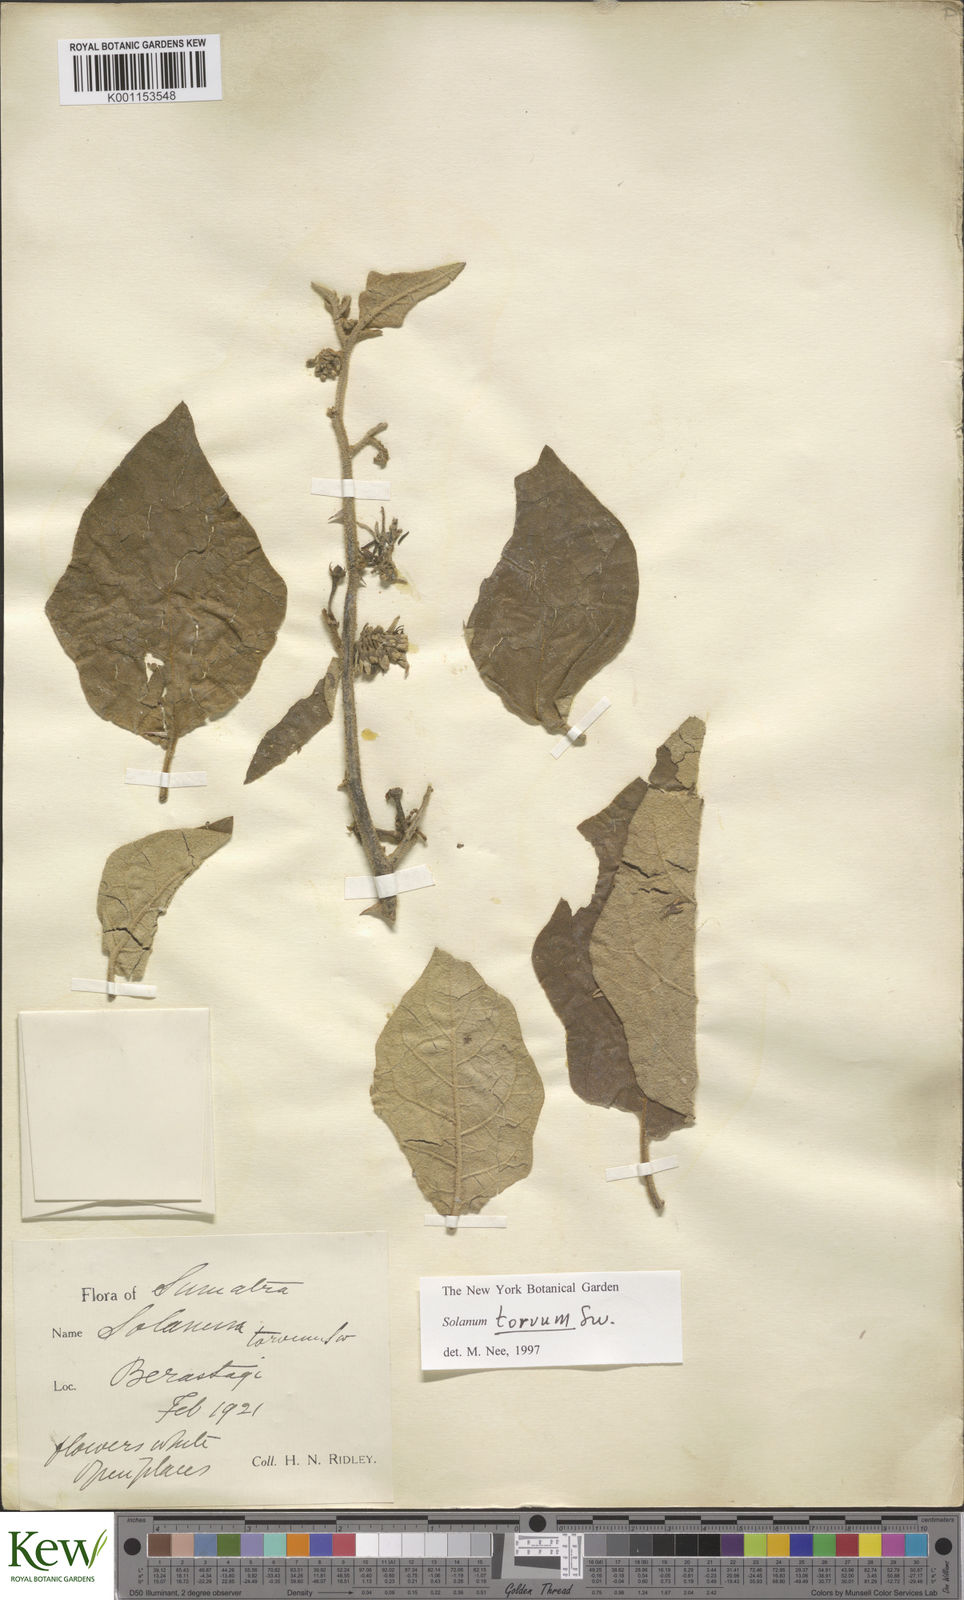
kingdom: Plantae
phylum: Tracheophyta
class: Magnoliopsida
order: Solanales
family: Solanaceae
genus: Solanum
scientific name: Solanum torvum
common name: Turkey berry
